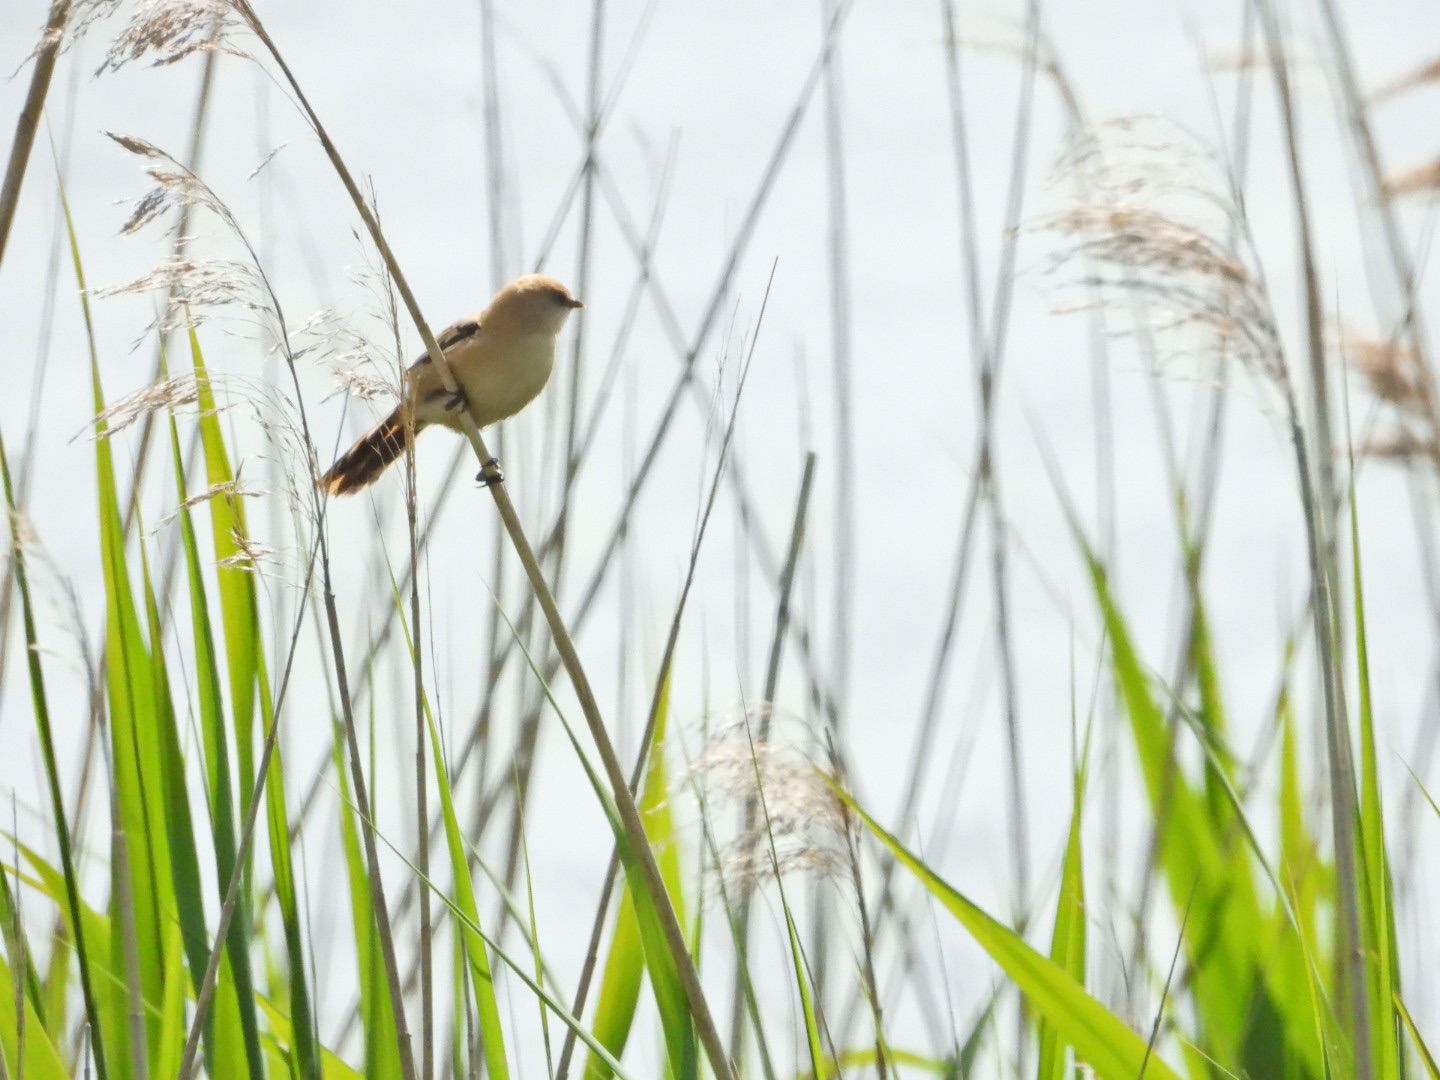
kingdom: Animalia
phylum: Chordata
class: Aves
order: Passeriformes
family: Panuridae
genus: Panurus
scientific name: Panurus biarmicus
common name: Skægmejse
